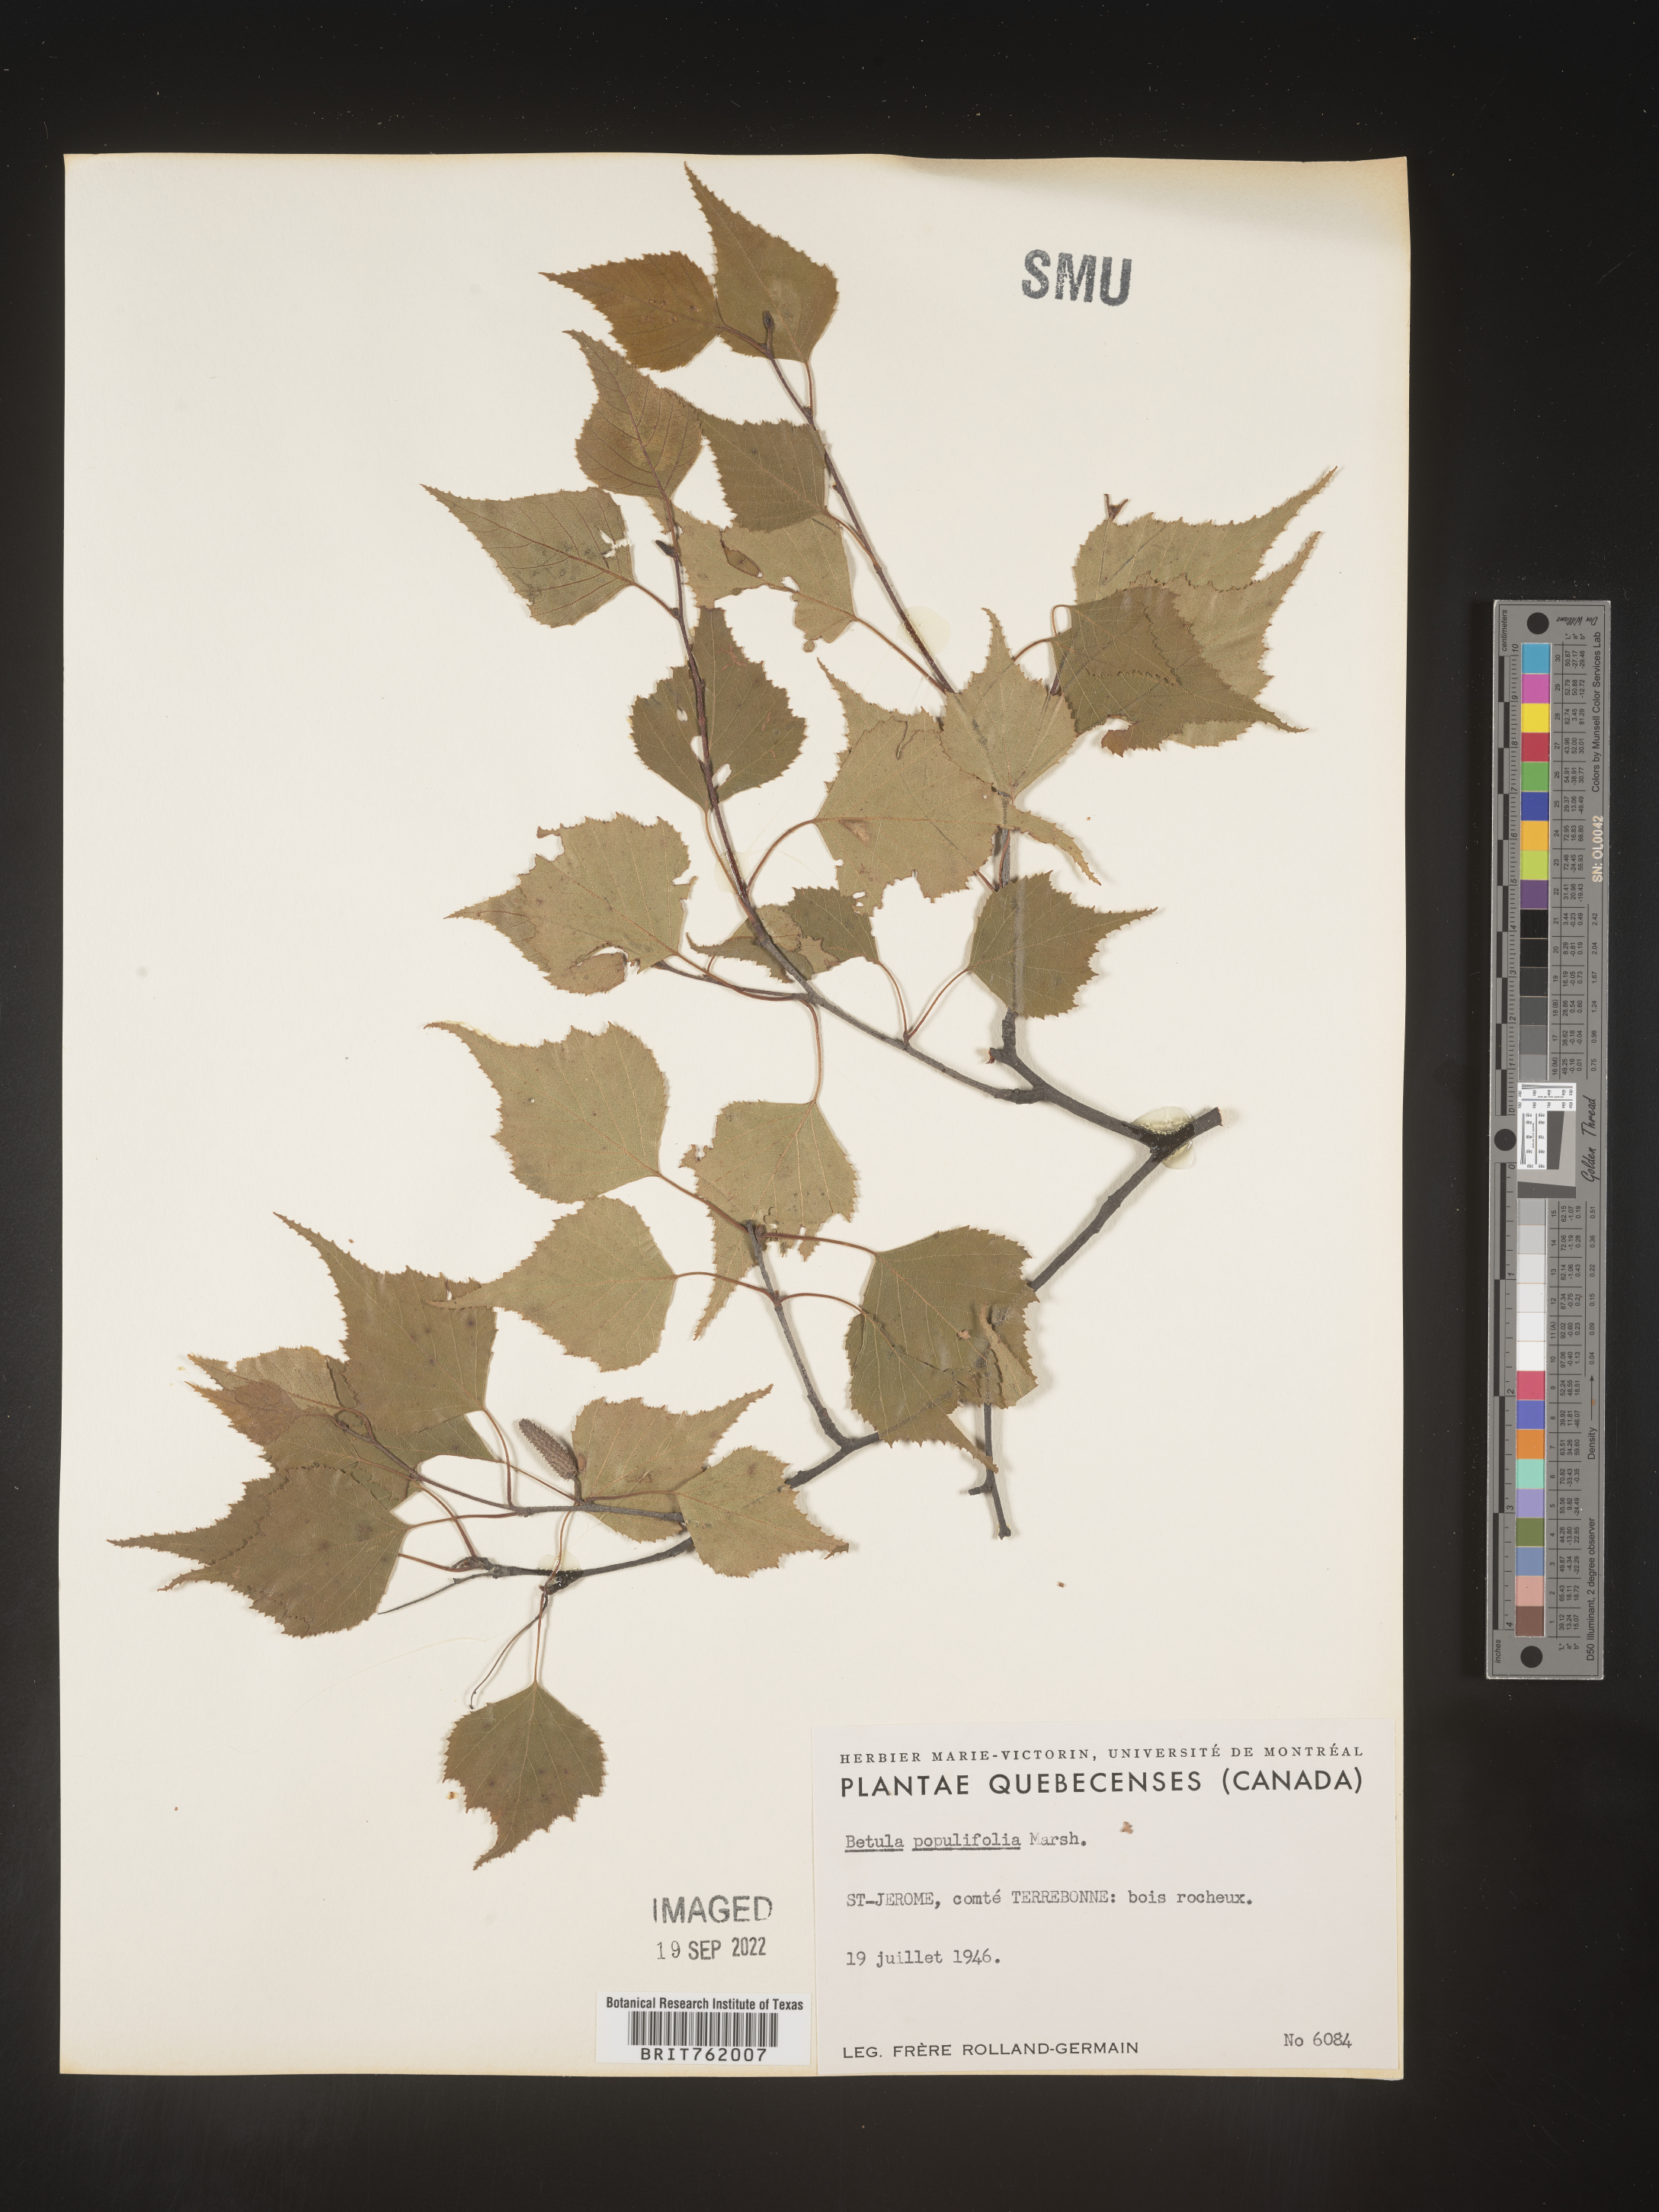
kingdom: Plantae
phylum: Tracheophyta
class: Magnoliopsida
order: Fagales
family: Betulaceae
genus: Betula
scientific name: Betula populifolia
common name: Fire birch
